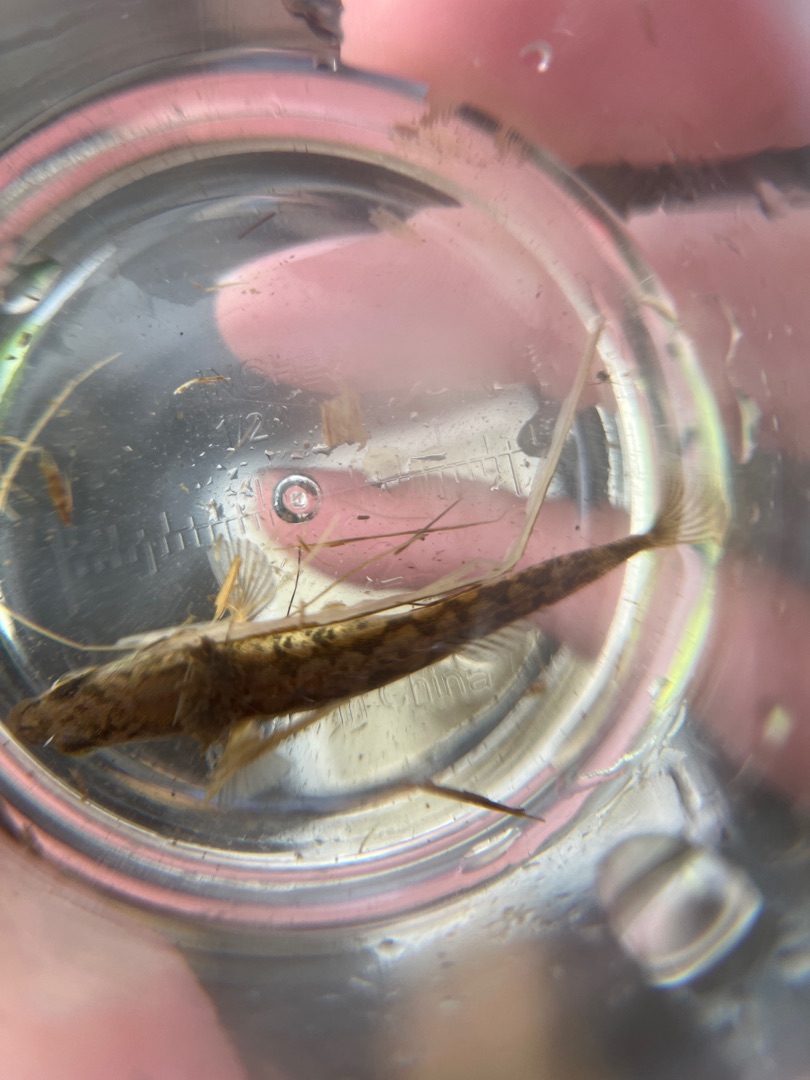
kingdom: Animalia
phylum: Chordata
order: Gasterosteiformes
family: Gasterosteidae
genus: Pungitius
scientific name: Pungitius pungitius
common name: Nipigget hundestejle
